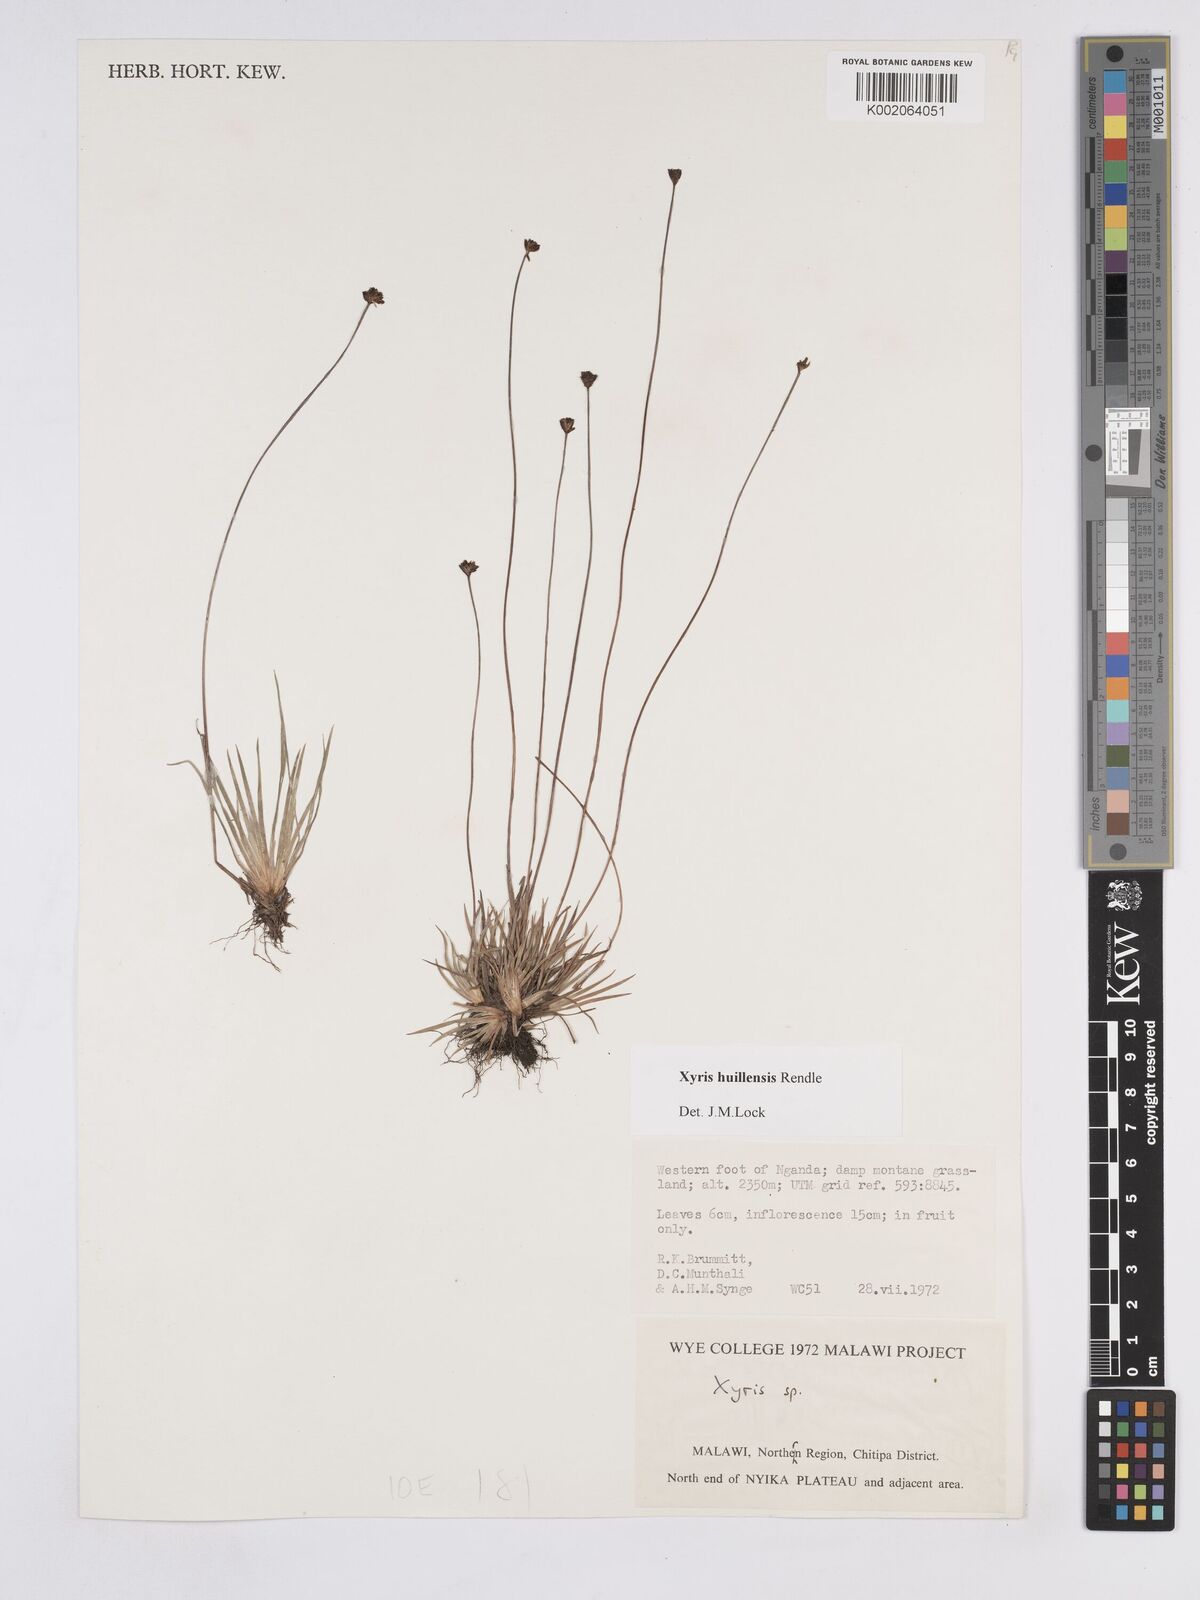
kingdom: Plantae
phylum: Tracheophyta
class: Liliopsida
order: Poales
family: Xyridaceae
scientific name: Xyridaceae
